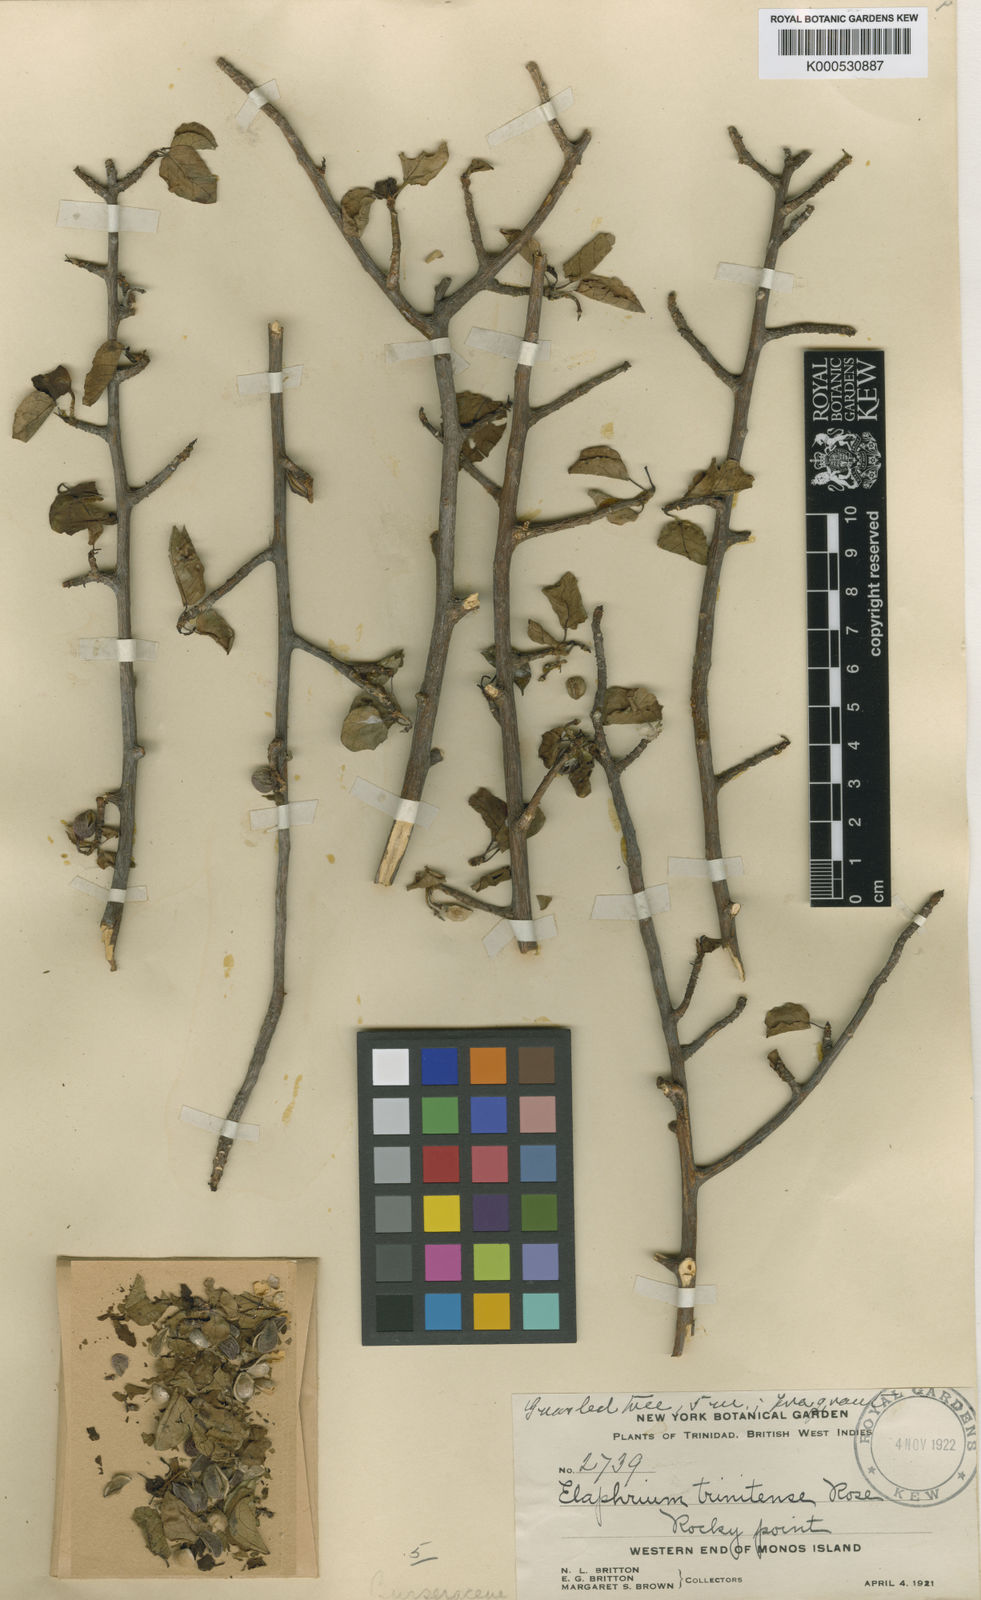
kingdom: Plantae
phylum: Tracheophyta
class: Magnoliopsida
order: Sapindales
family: Burseraceae
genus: Bursera
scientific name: Bursera karsteniana
